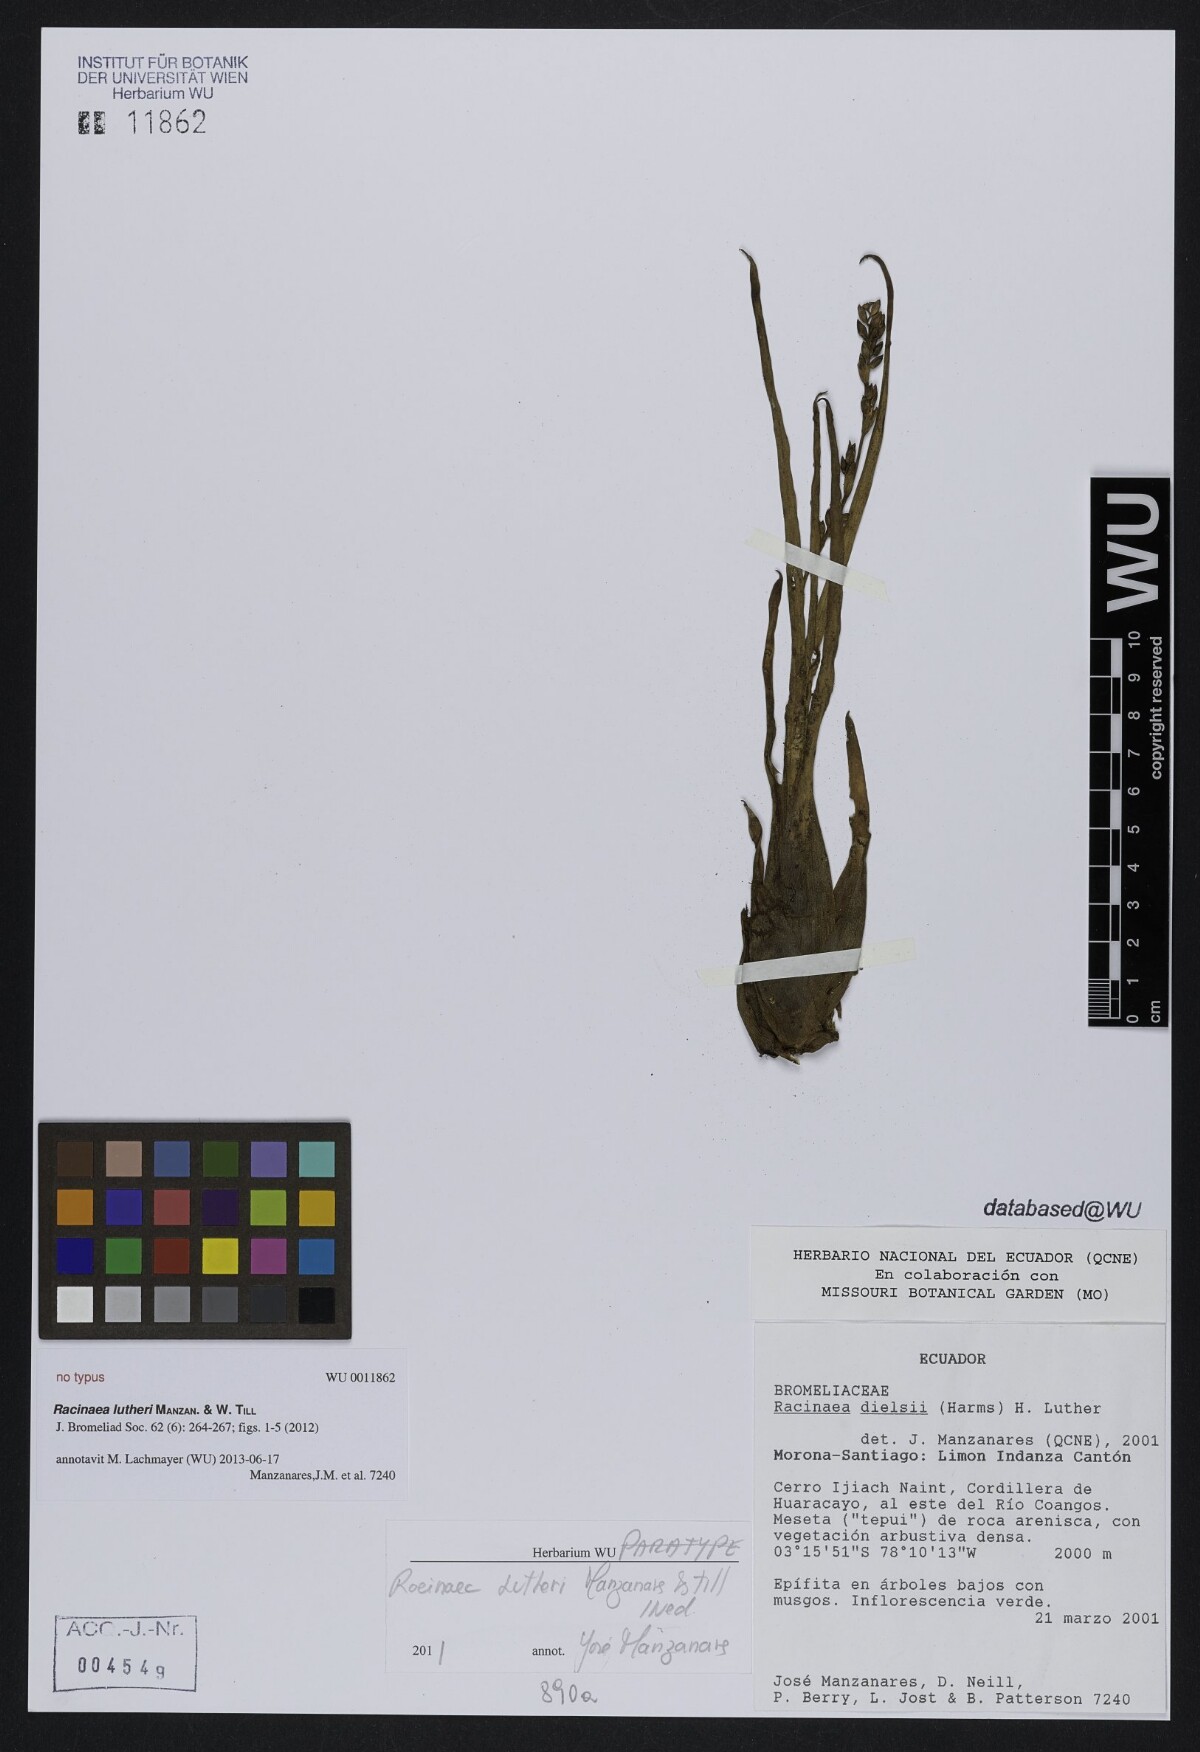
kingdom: Plantae
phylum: Tracheophyta
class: Liliopsida
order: Poales
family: Bromeliaceae
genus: Racinaea
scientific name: Racinaea lutheri
